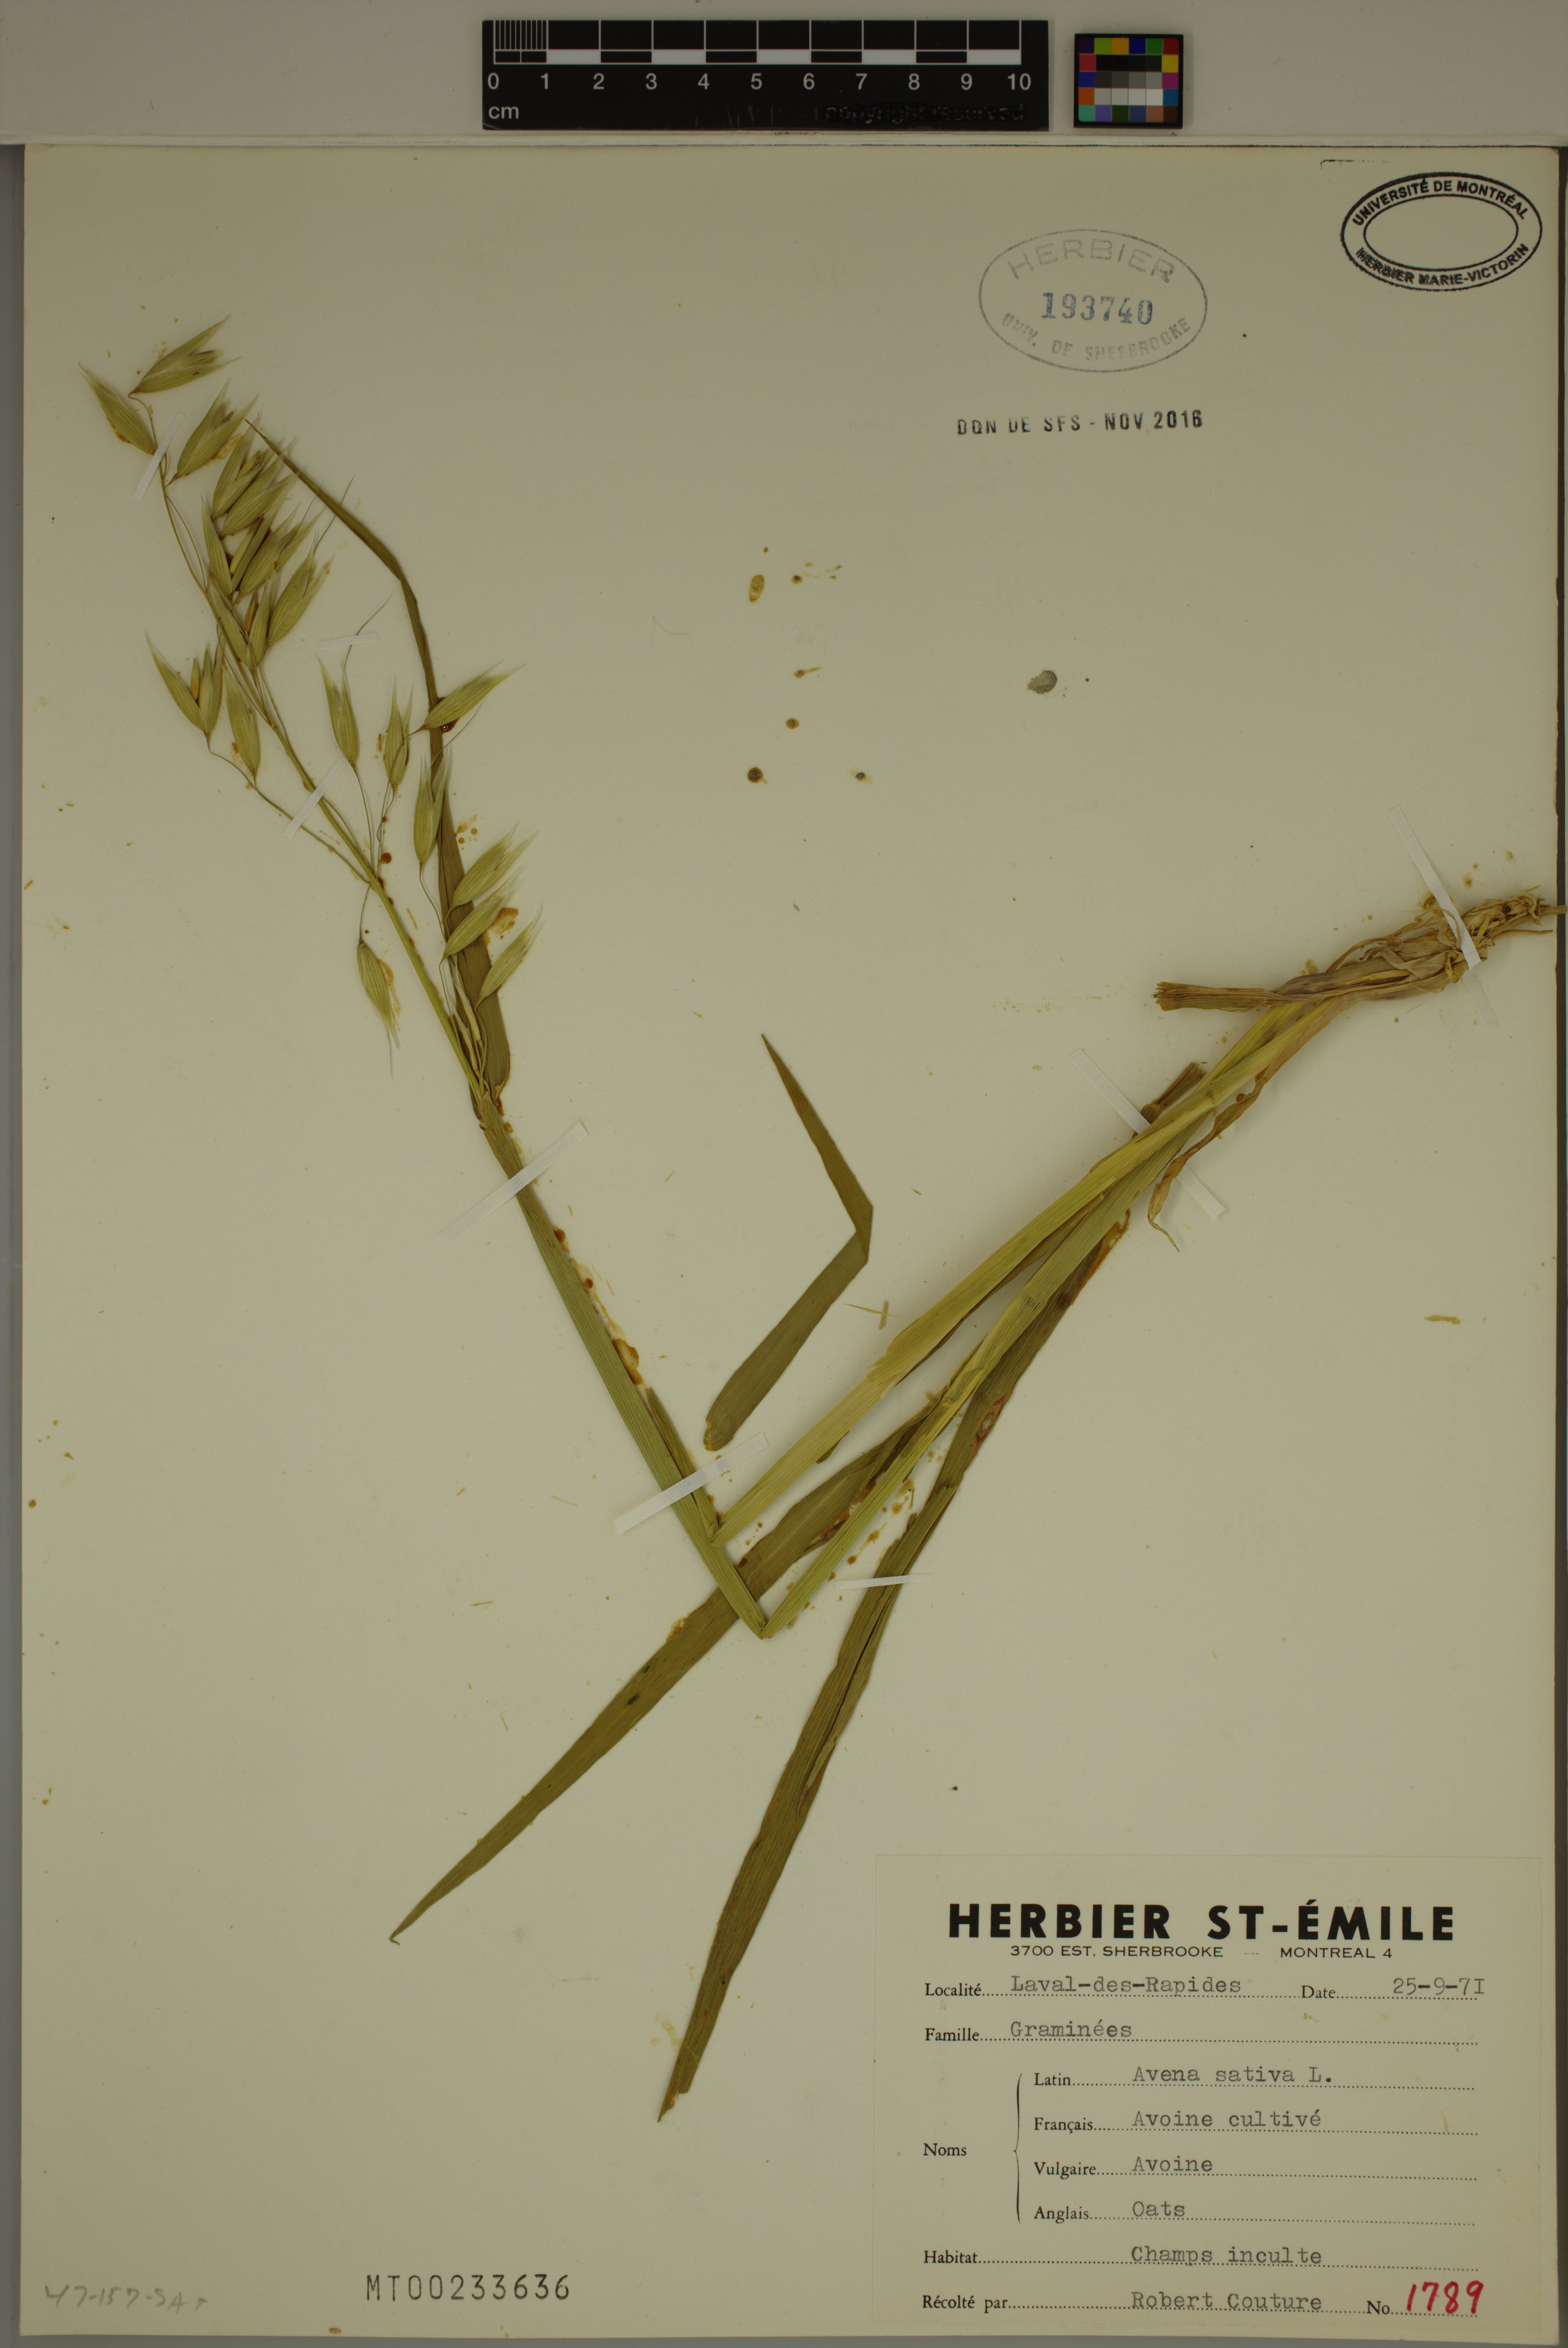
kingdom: Plantae
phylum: Tracheophyta
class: Liliopsida
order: Poales
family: Poaceae
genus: Avena
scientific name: Avena sativa
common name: Oat
